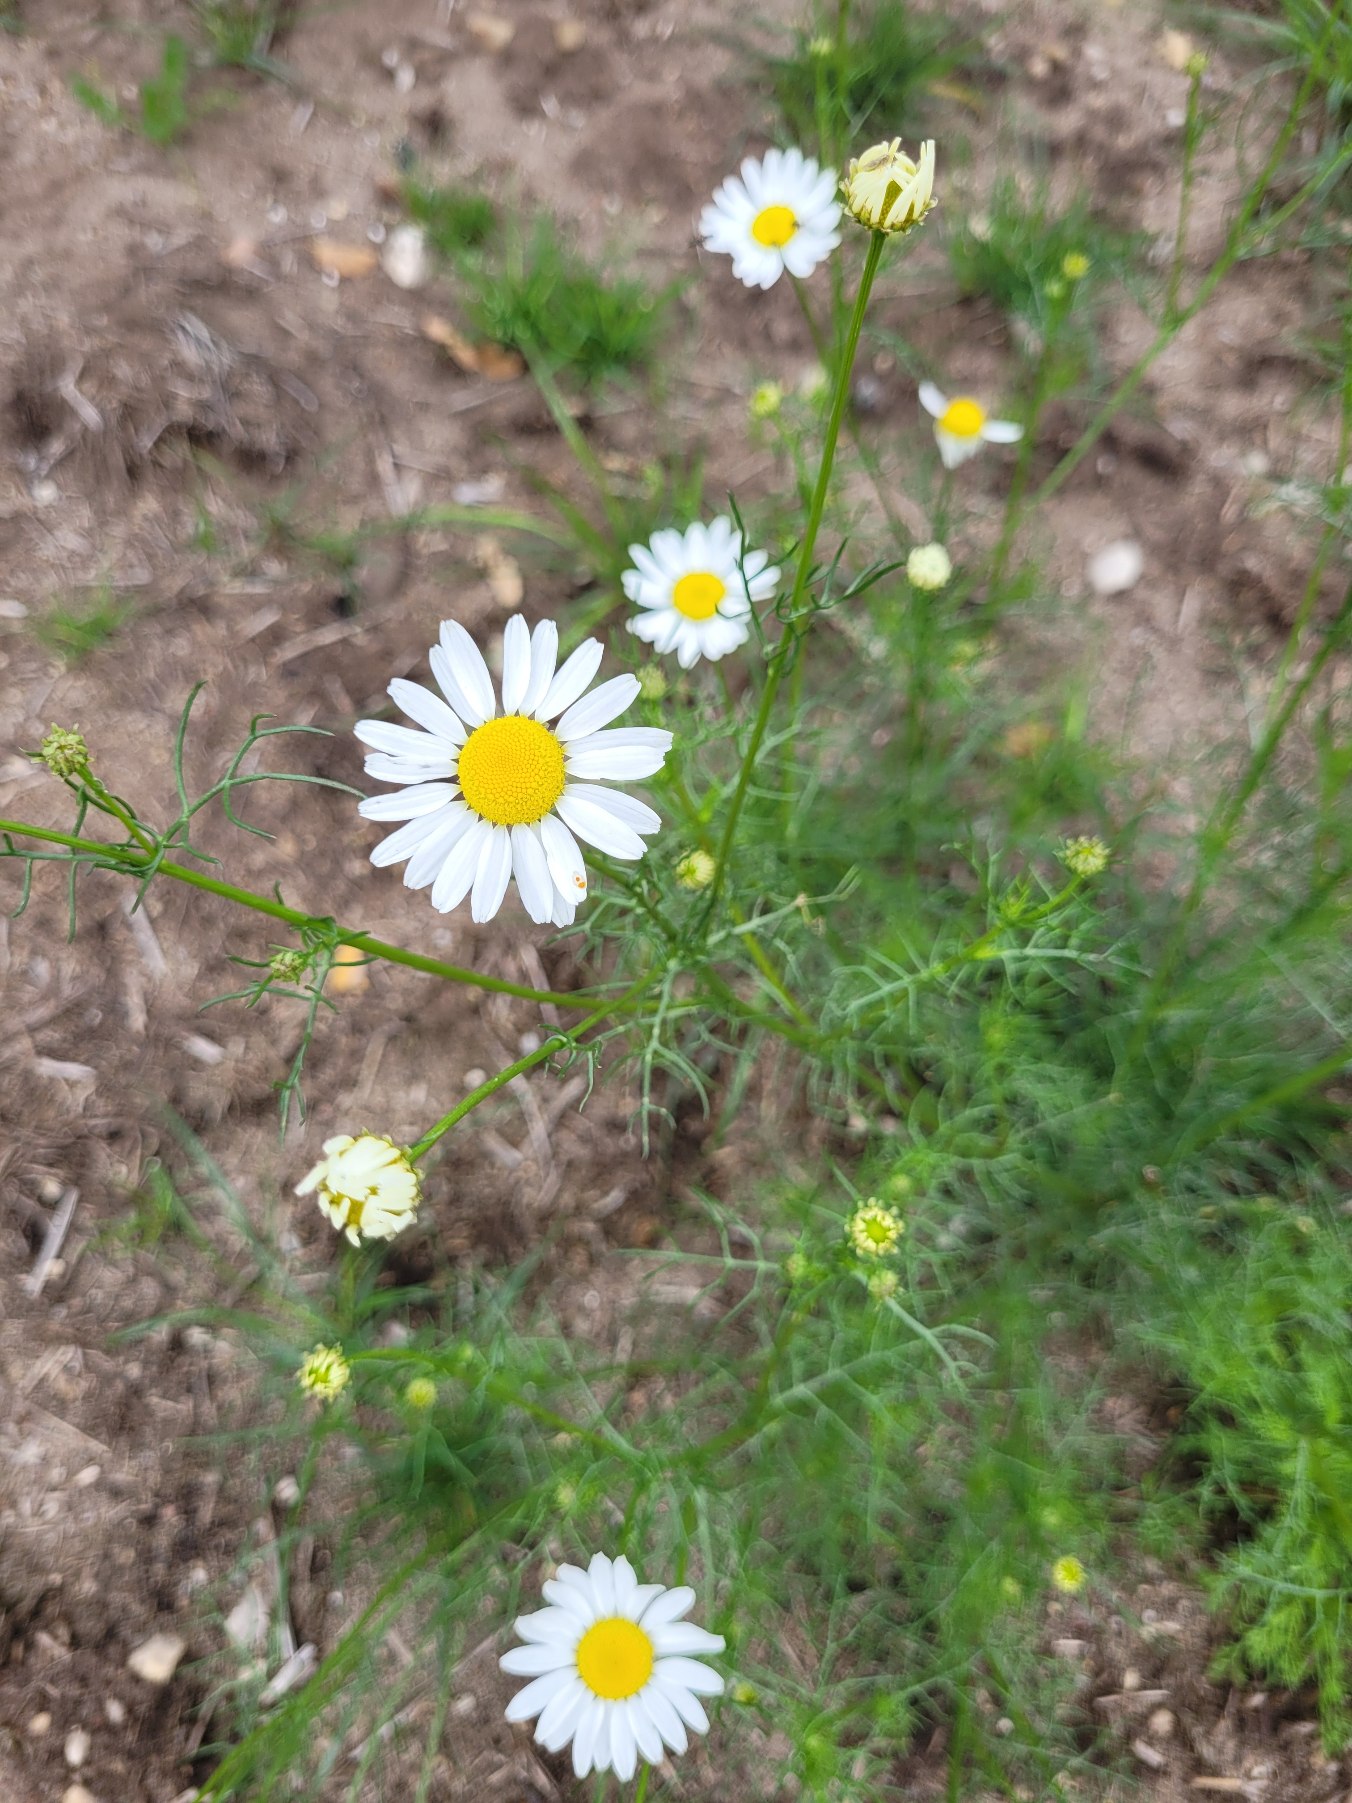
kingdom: Plantae
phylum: Tracheophyta
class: Magnoliopsida
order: Asterales
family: Asteraceae
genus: Tripleurospermum
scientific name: Tripleurospermum inodorum
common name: Lugtløs kamille
